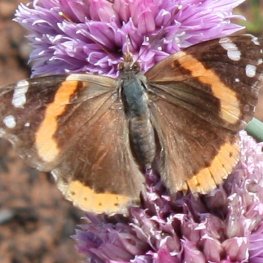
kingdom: Animalia
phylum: Arthropoda
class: Insecta
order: Lepidoptera
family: Nymphalidae
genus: Vanessa
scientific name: Vanessa atalanta
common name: Red Admiral
